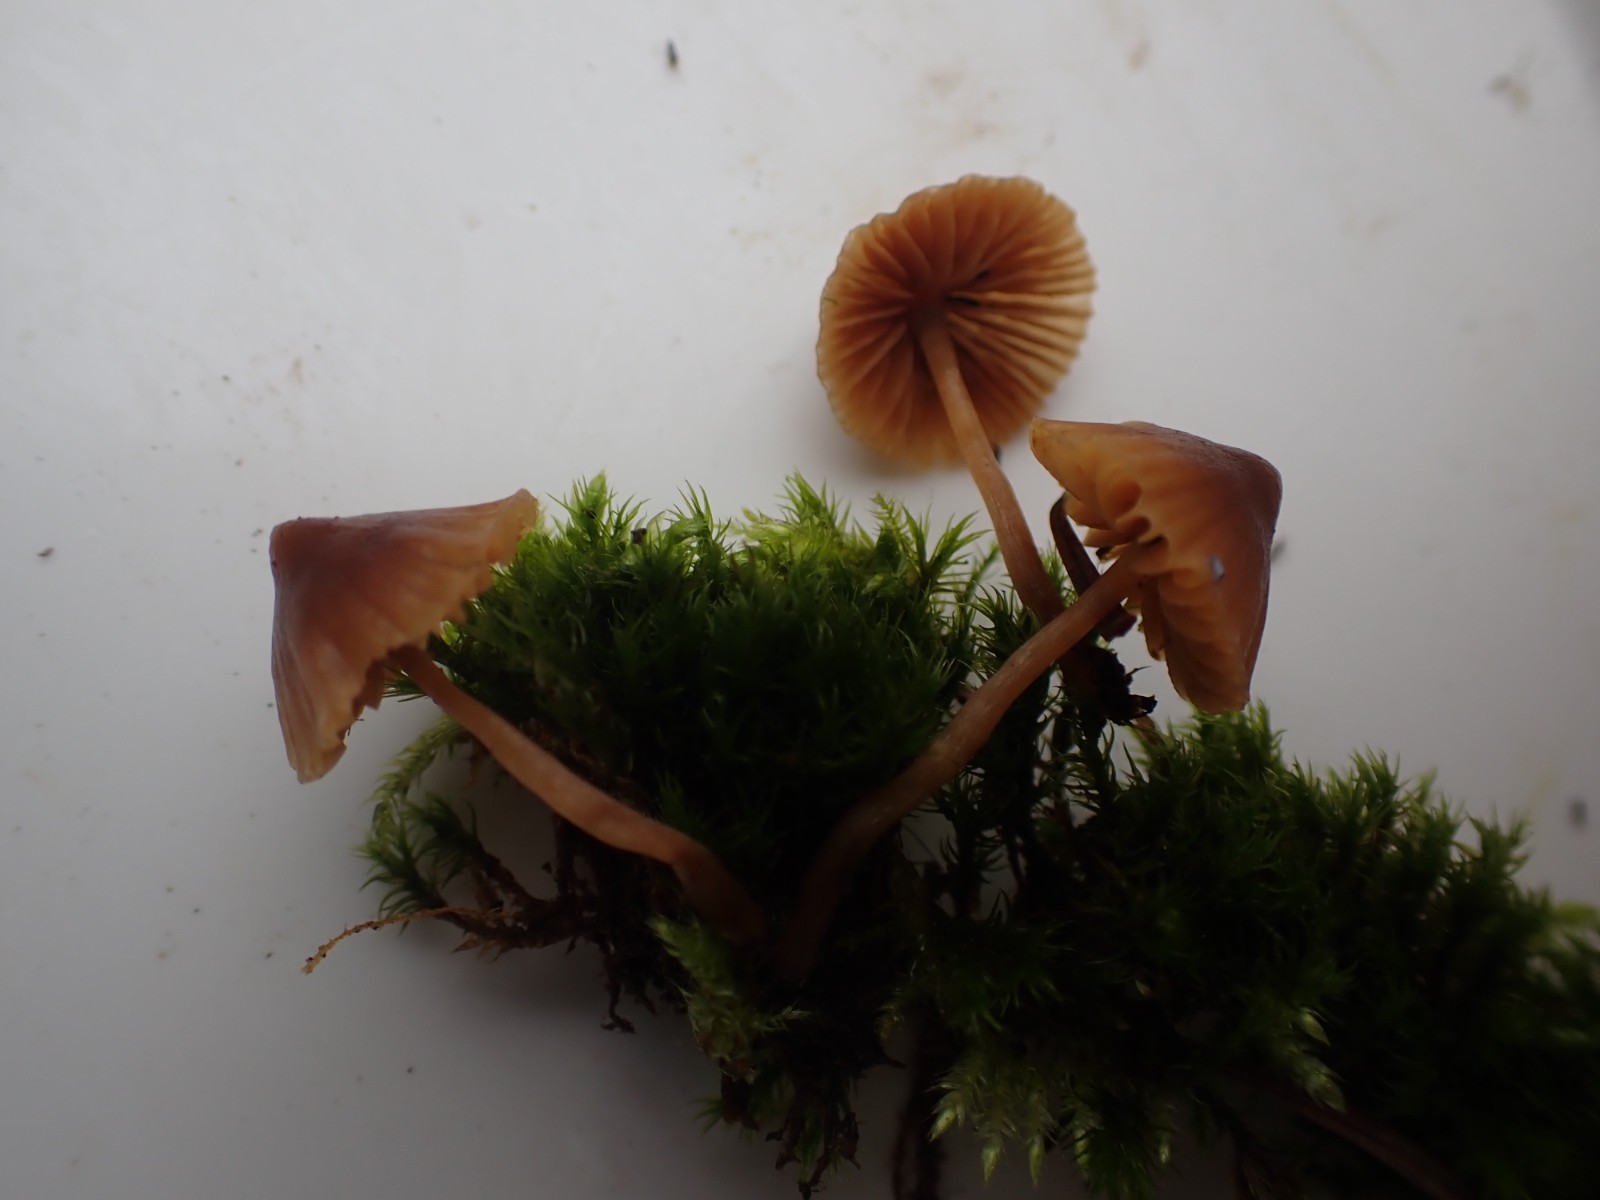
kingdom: Fungi
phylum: Basidiomycota
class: Agaricomycetes
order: Agaricales
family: Hymenogastraceae
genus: Galerina
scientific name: Galerina
